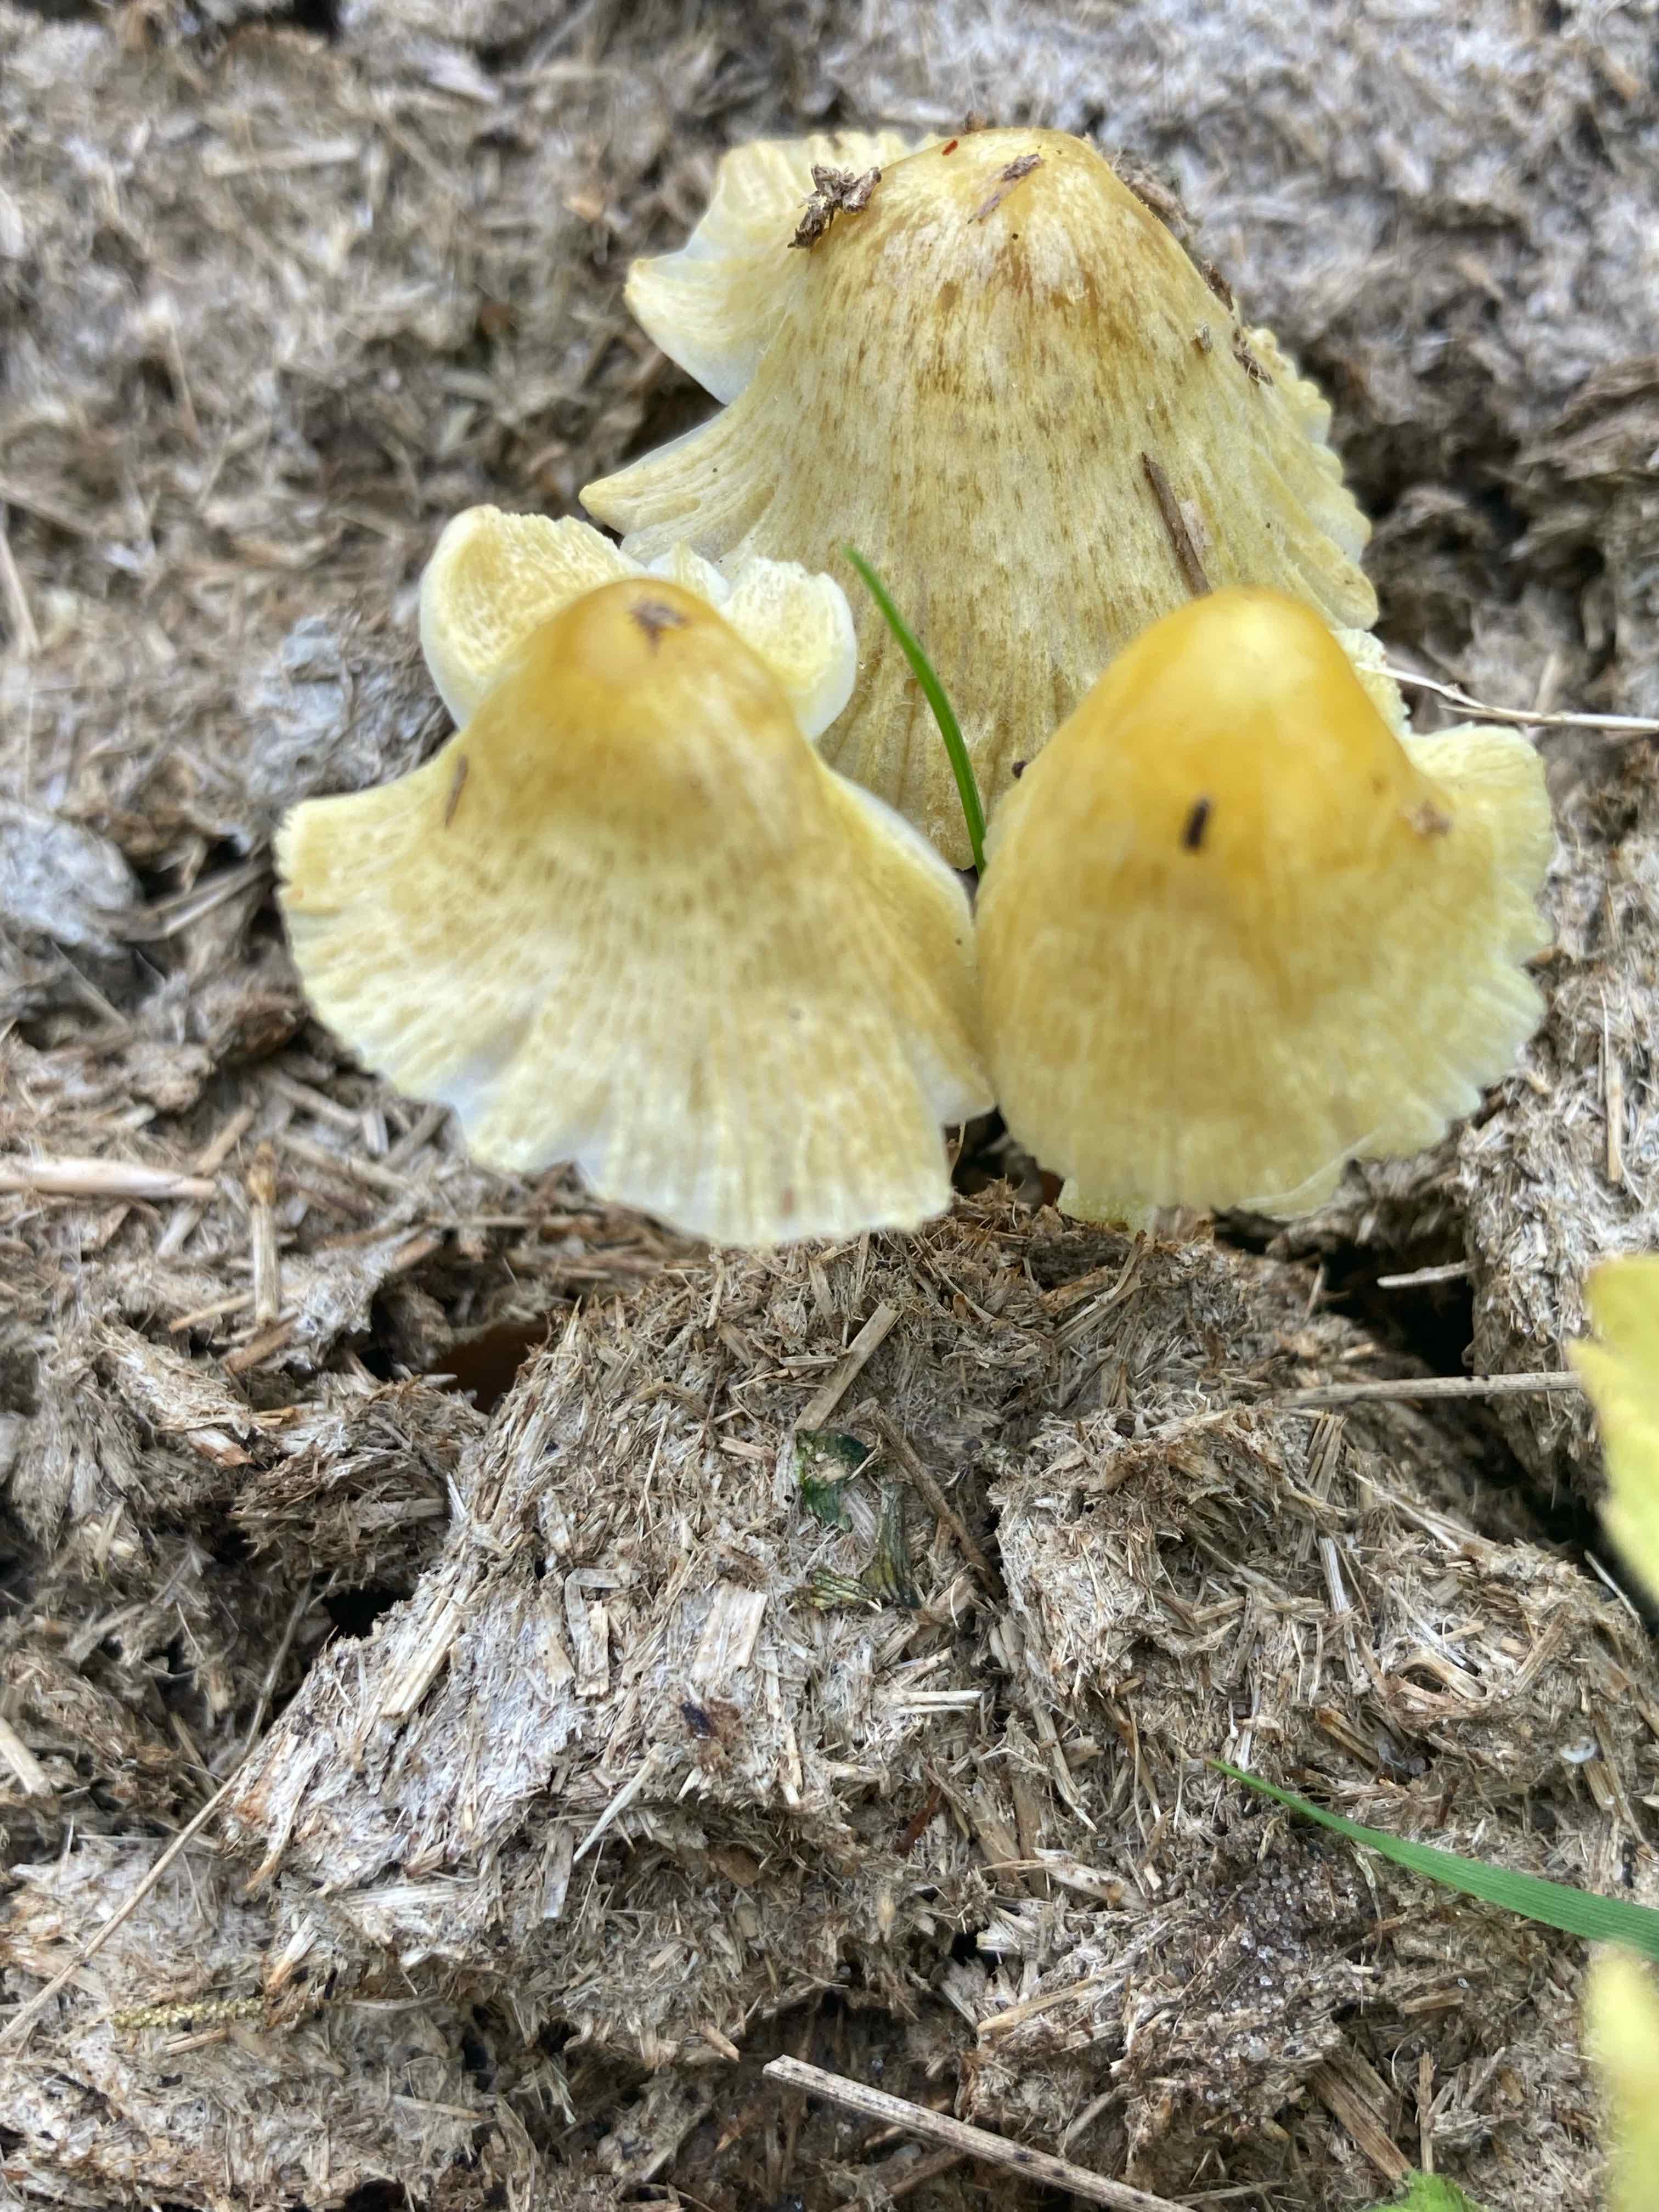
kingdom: Fungi
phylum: Basidiomycota
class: Agaricomycetes
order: Agaricales
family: Bolbitiaceae
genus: Bolbitius
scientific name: Bolbitius titubans
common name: almindelig gulhat
